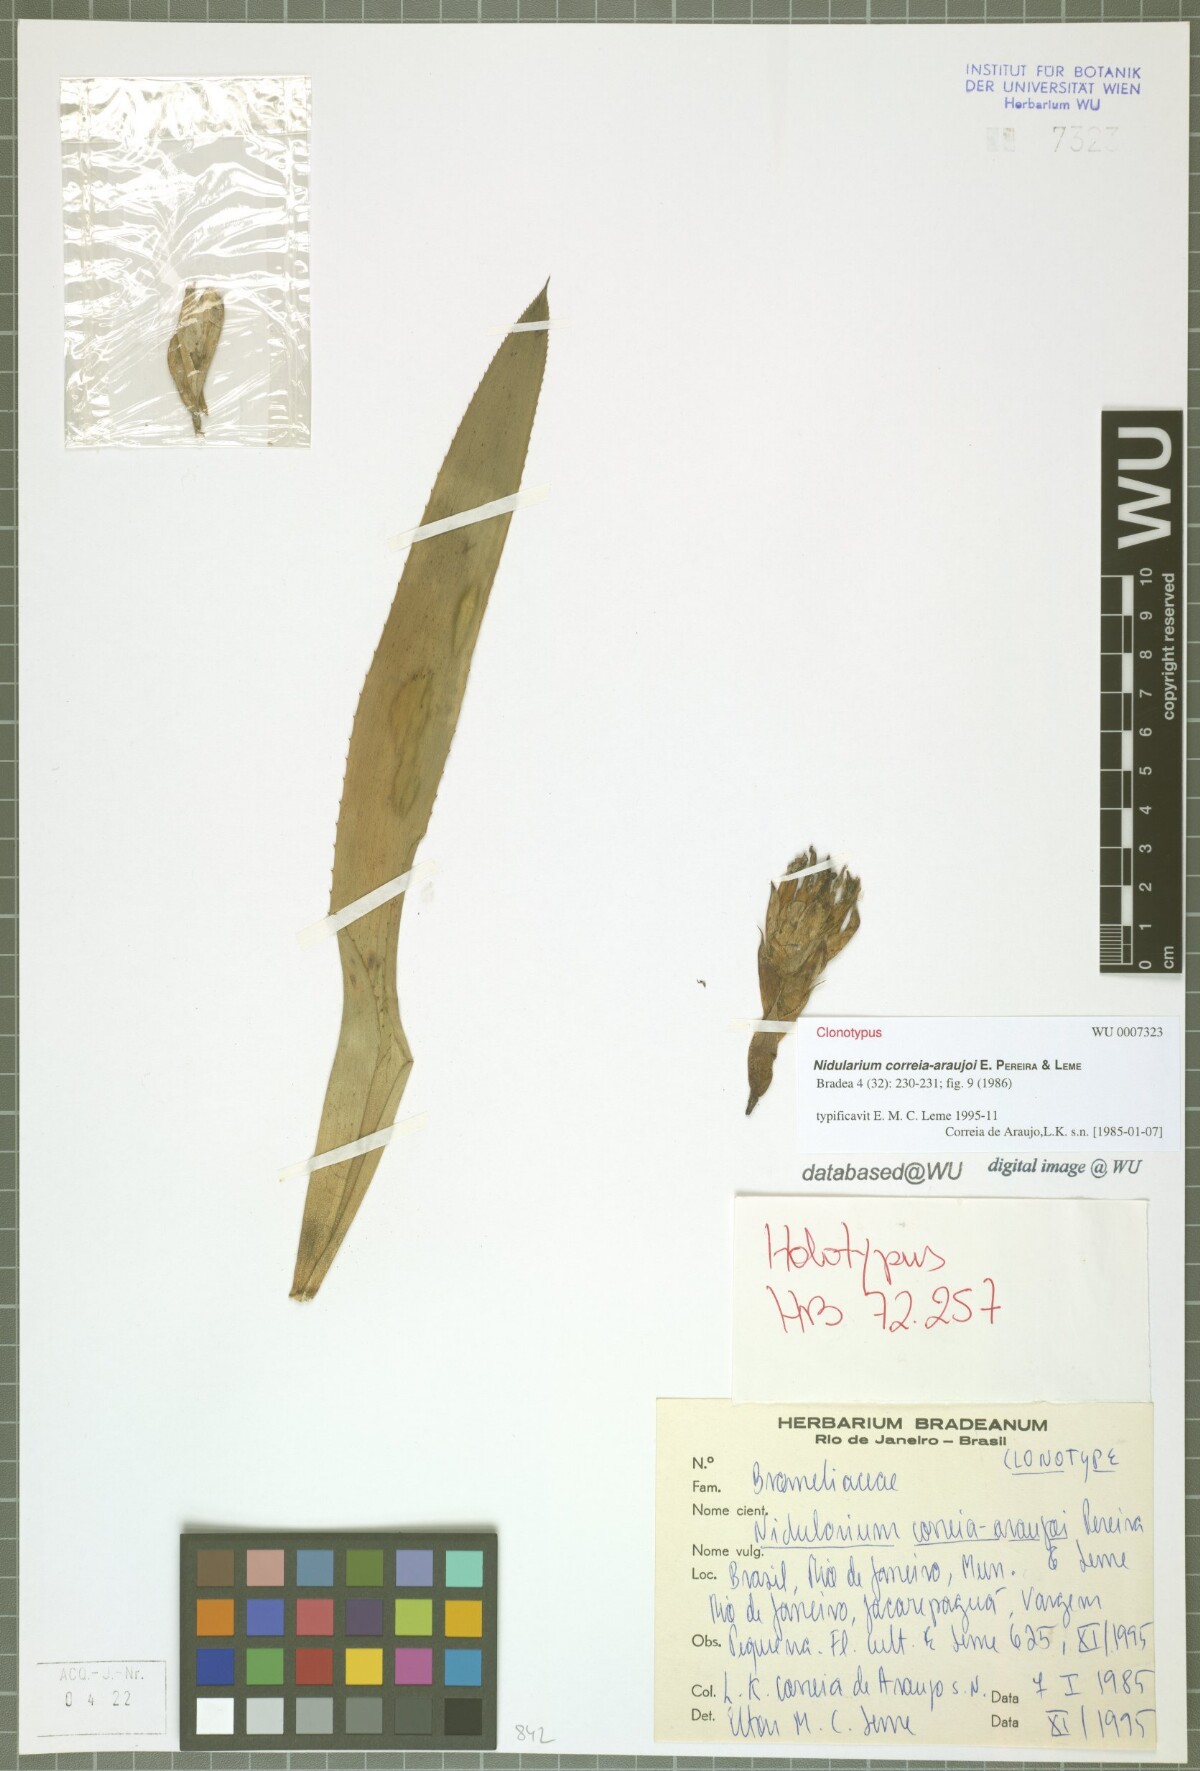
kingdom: Plantae
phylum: Tracheophyta
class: Liliopsida
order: Poales
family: Bromeliaceae
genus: Canistropsis
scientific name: Canistropsis correia-araujoi
